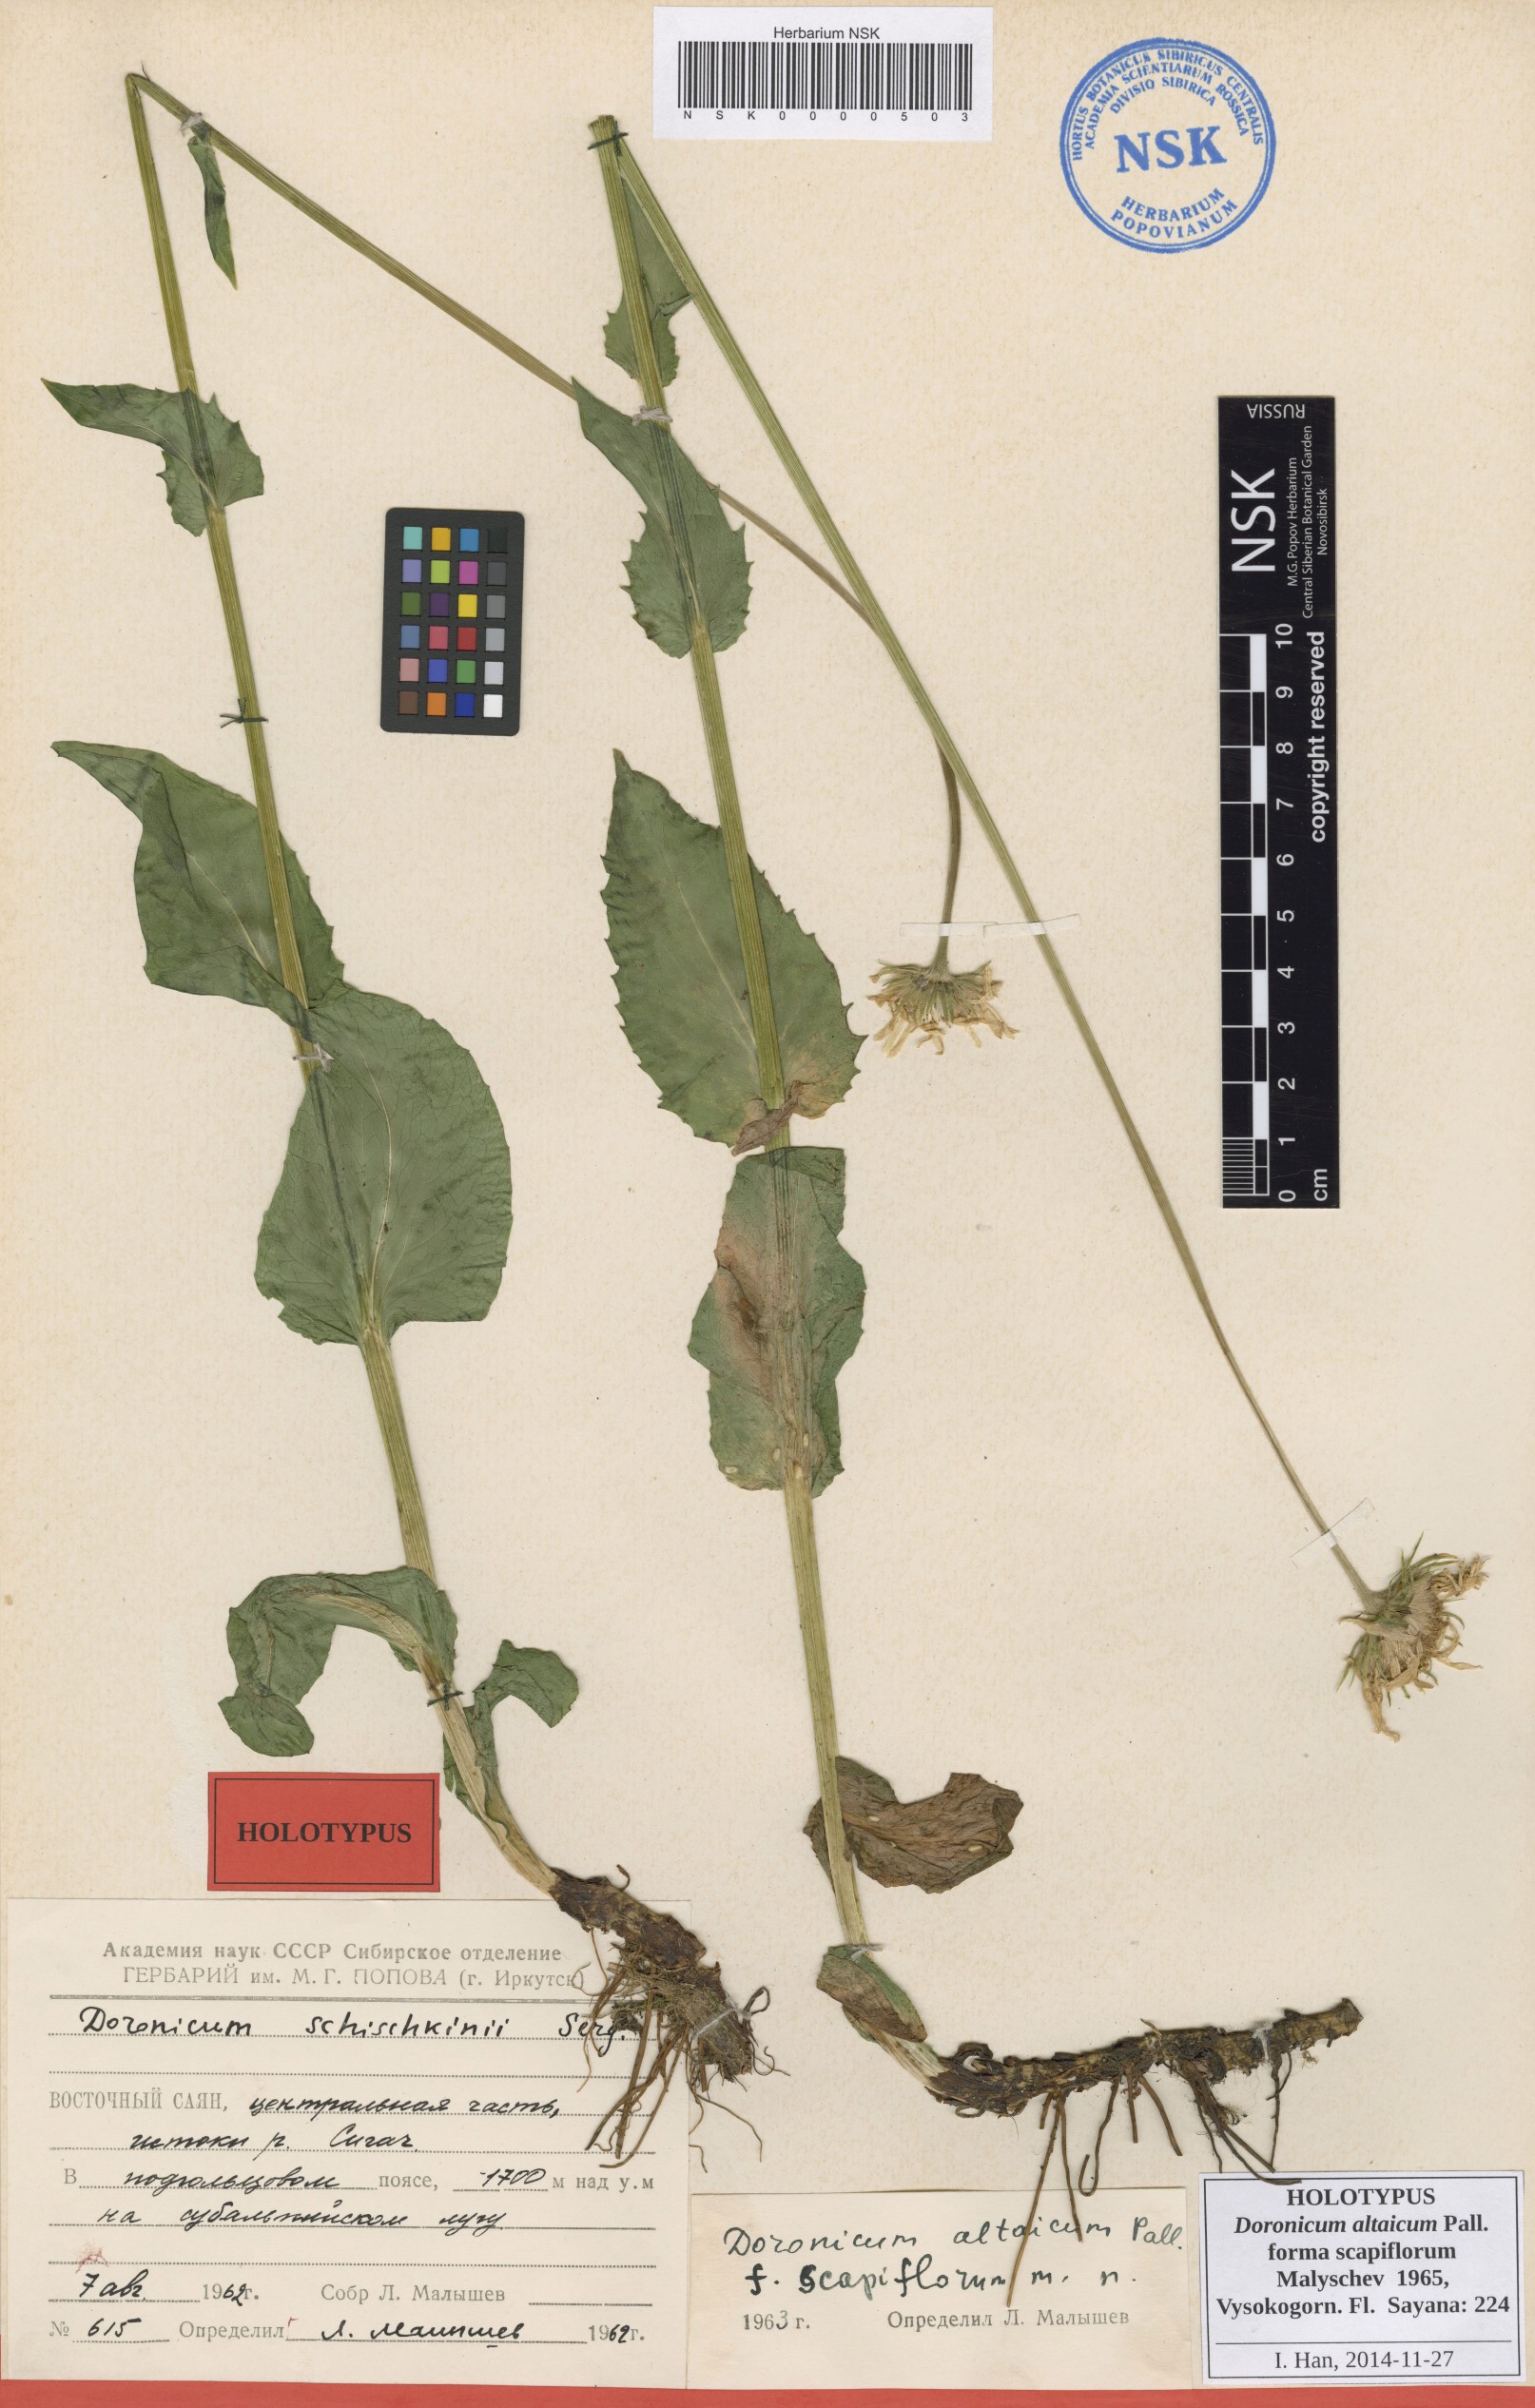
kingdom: Plantae
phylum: Tracheophyta
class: Magnoliopsida
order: Asterales
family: Asteraceae
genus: Doronicum
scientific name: Doronicum altaicum
